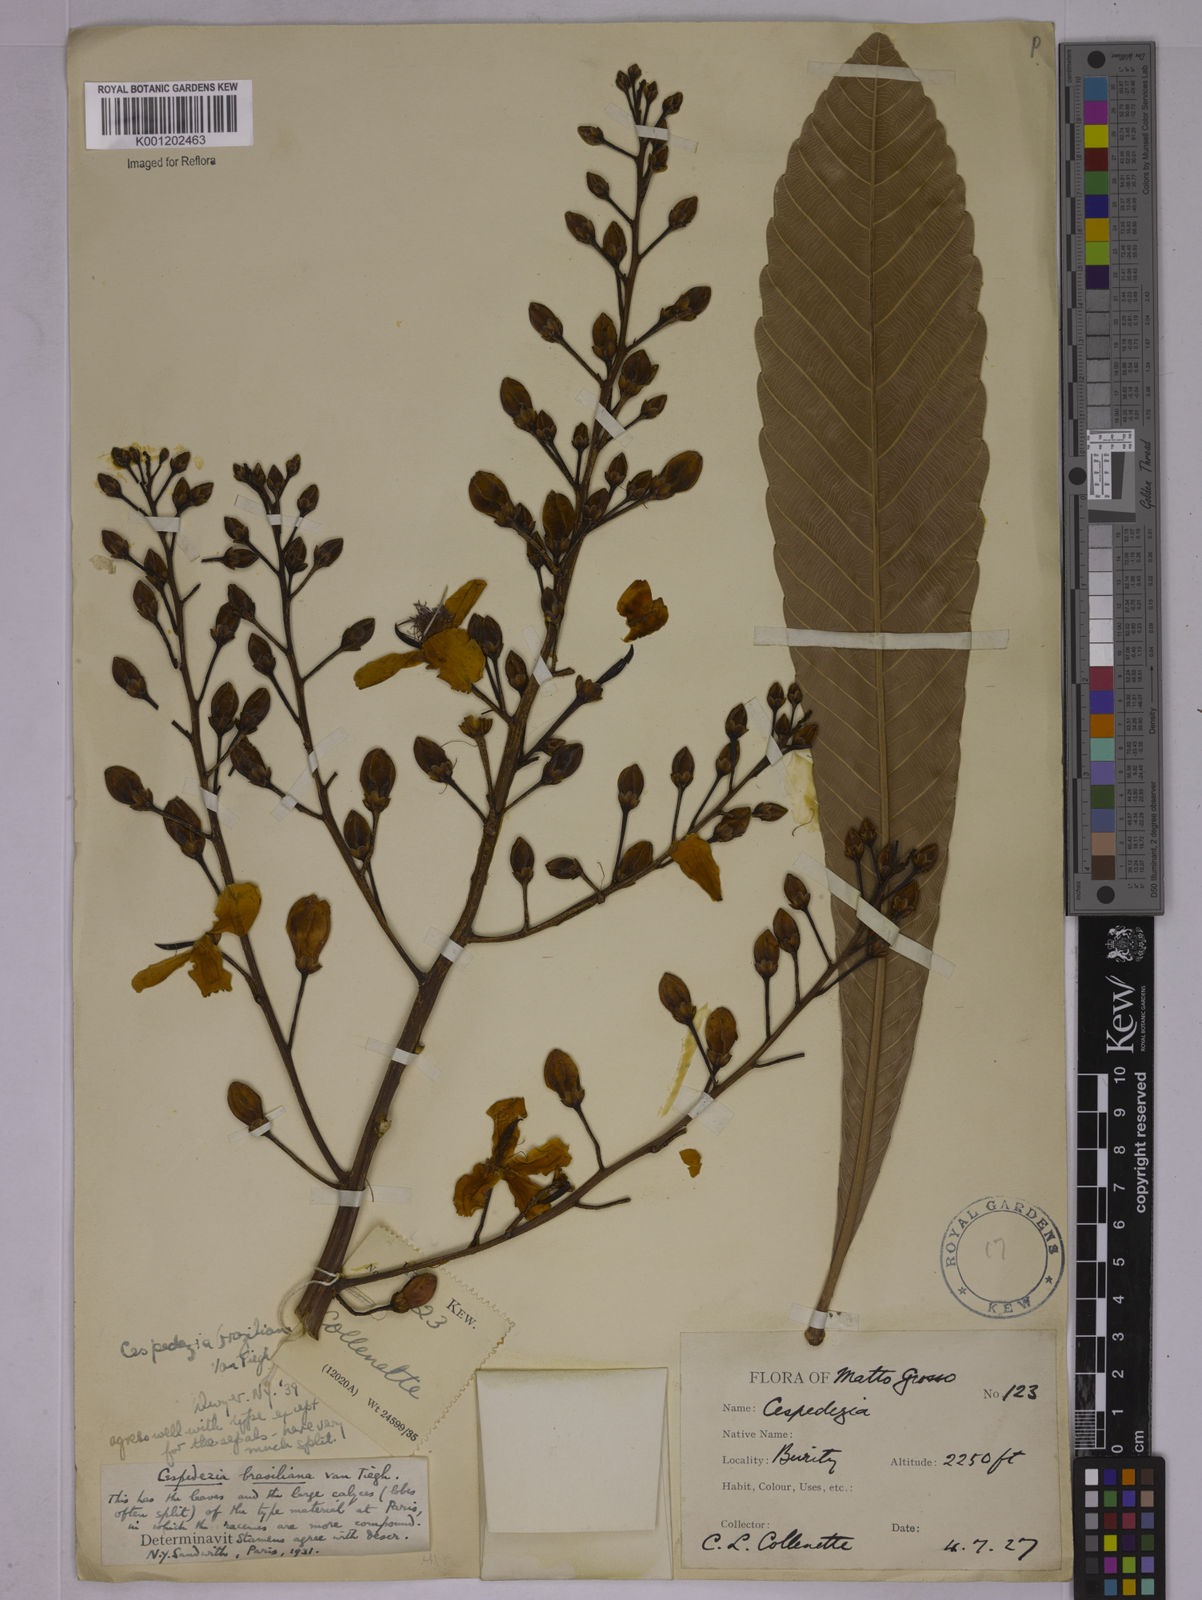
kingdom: Plantae
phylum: Tracheophyta
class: Magnoliopsida
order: Malpighiales
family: Ochnaceae
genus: Cespedesia
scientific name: Cespedesia spathulata
